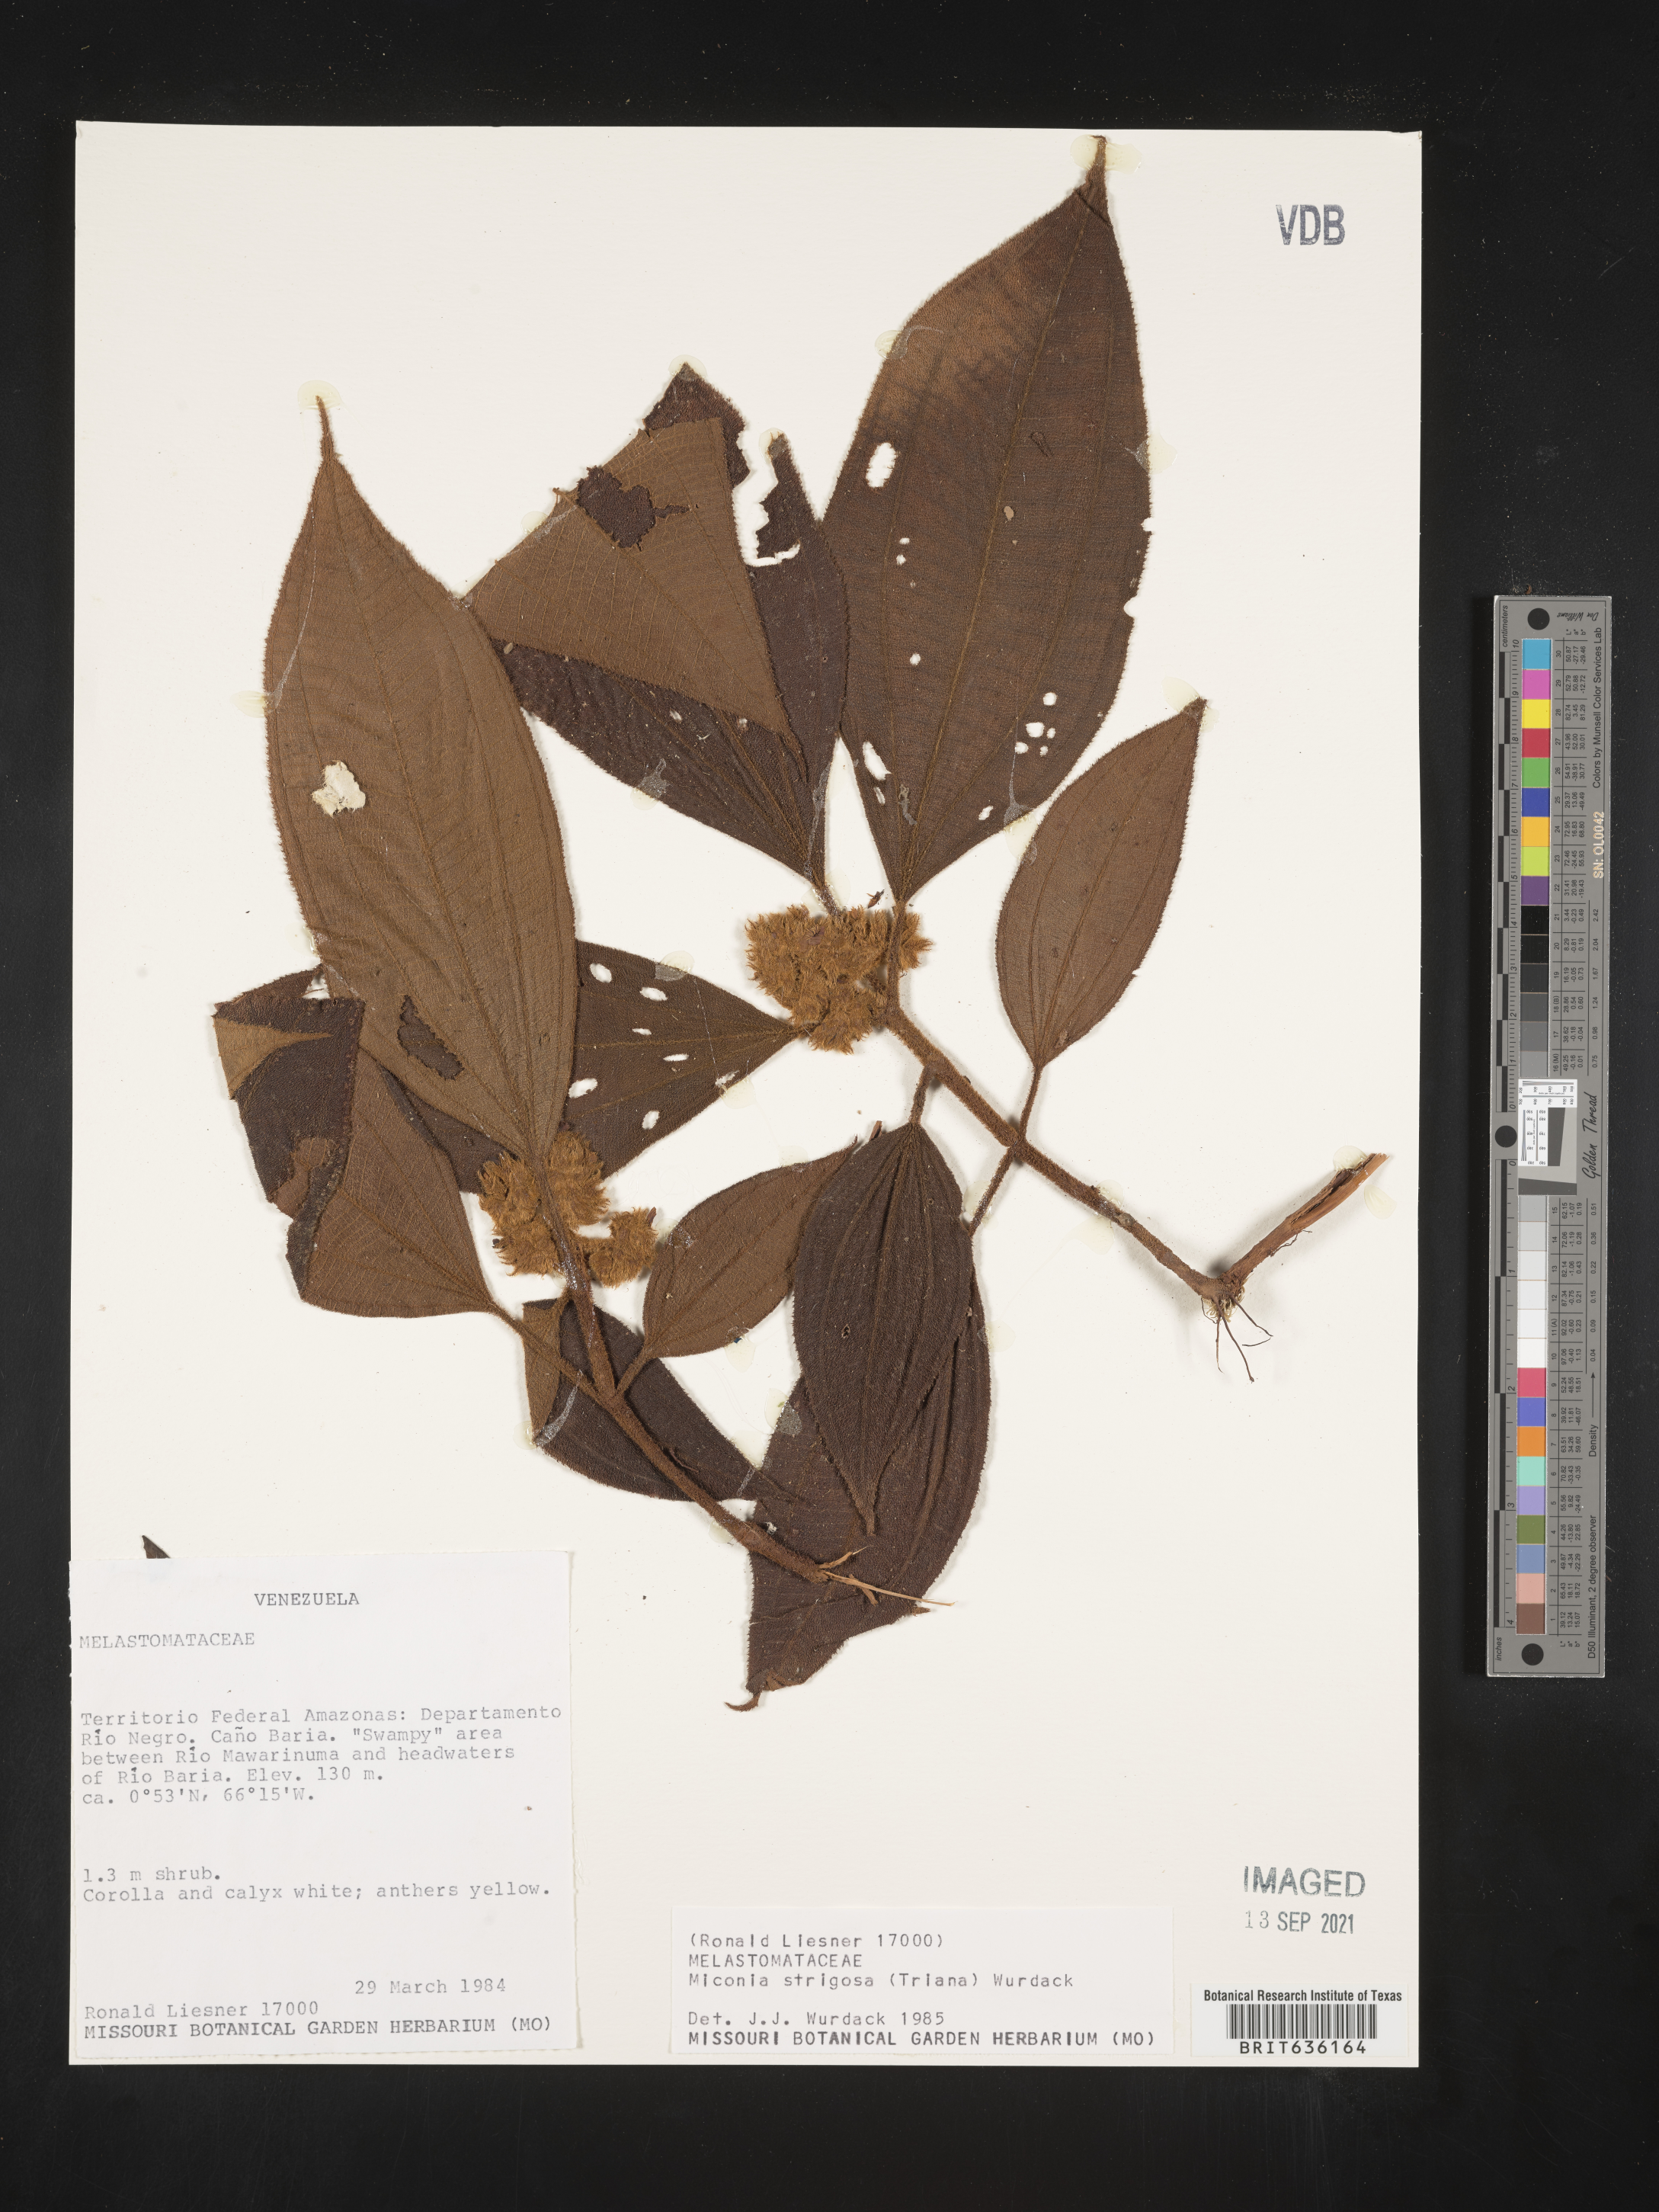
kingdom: Plantae
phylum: Tracheophyta
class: Magnoliopsida
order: Myrtales
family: Melastomataceae
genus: Miconia
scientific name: Miconia
